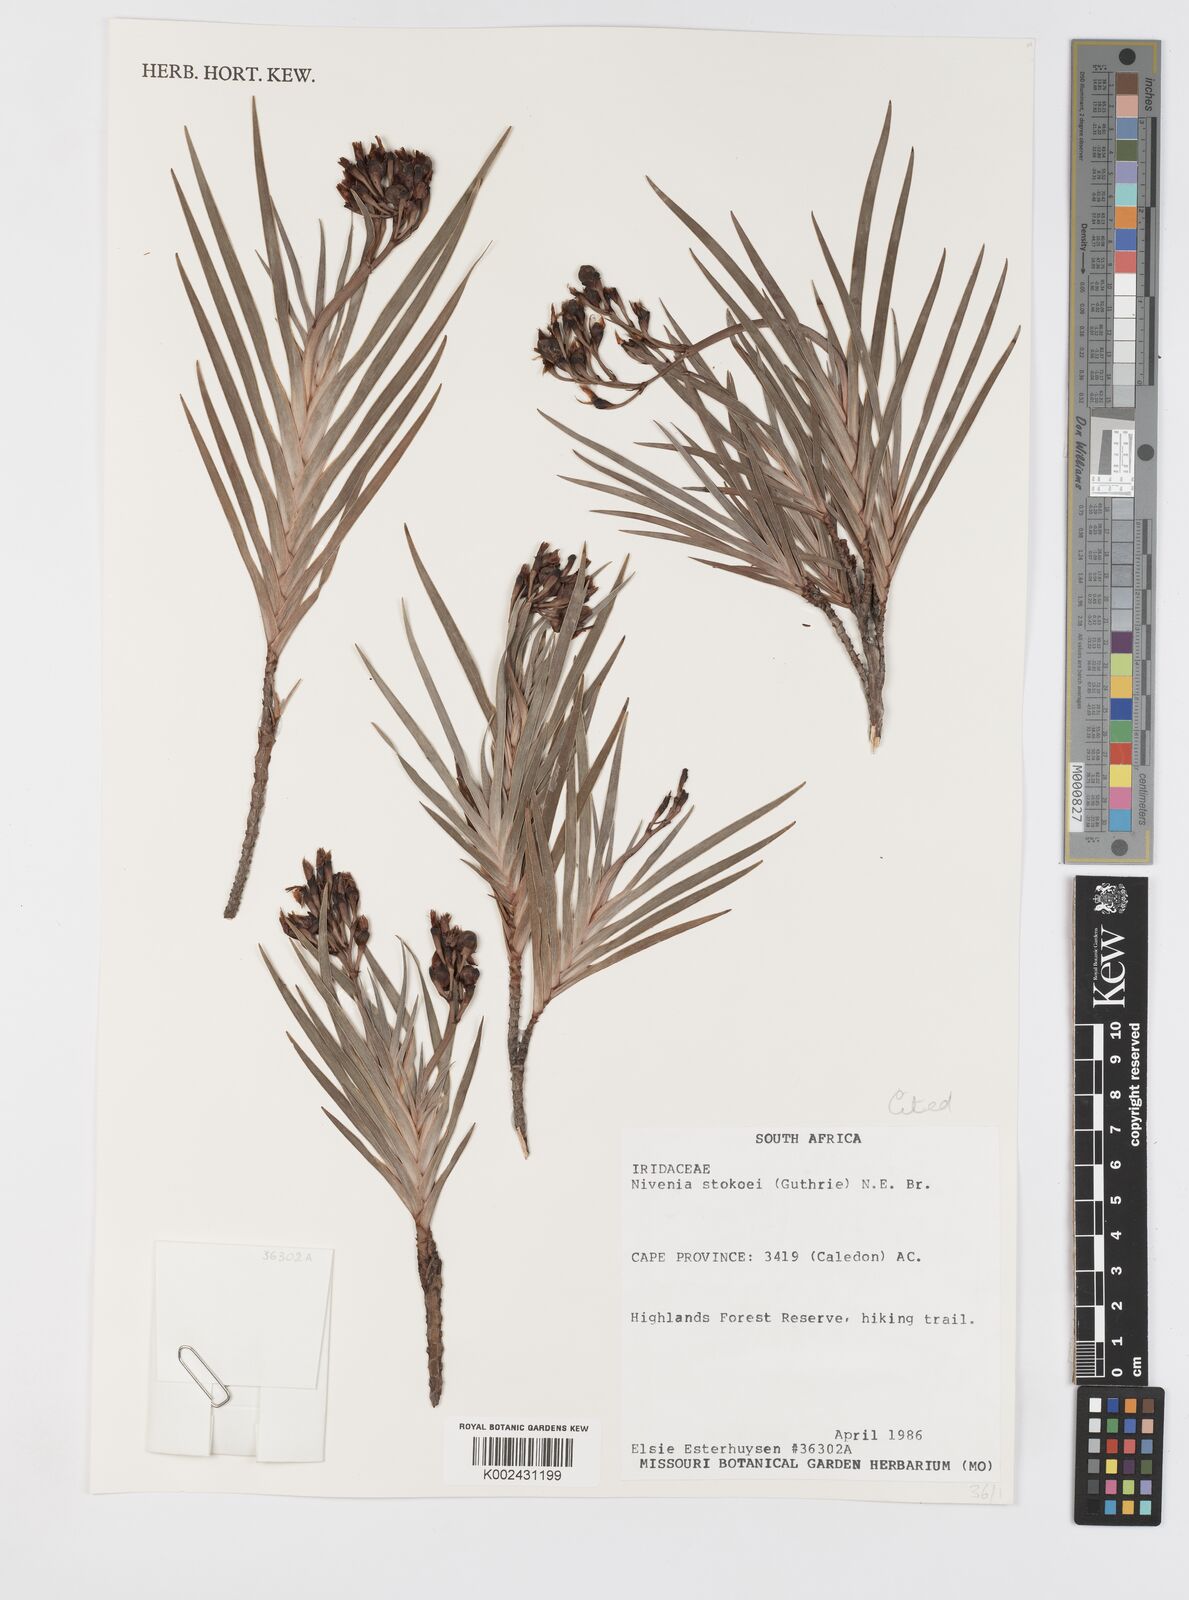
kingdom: Plantae
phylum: Tracheophyta
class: Liliopsida
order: Asparagales
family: Iridaceae
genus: Nivenia
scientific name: Nivenia stokoei
